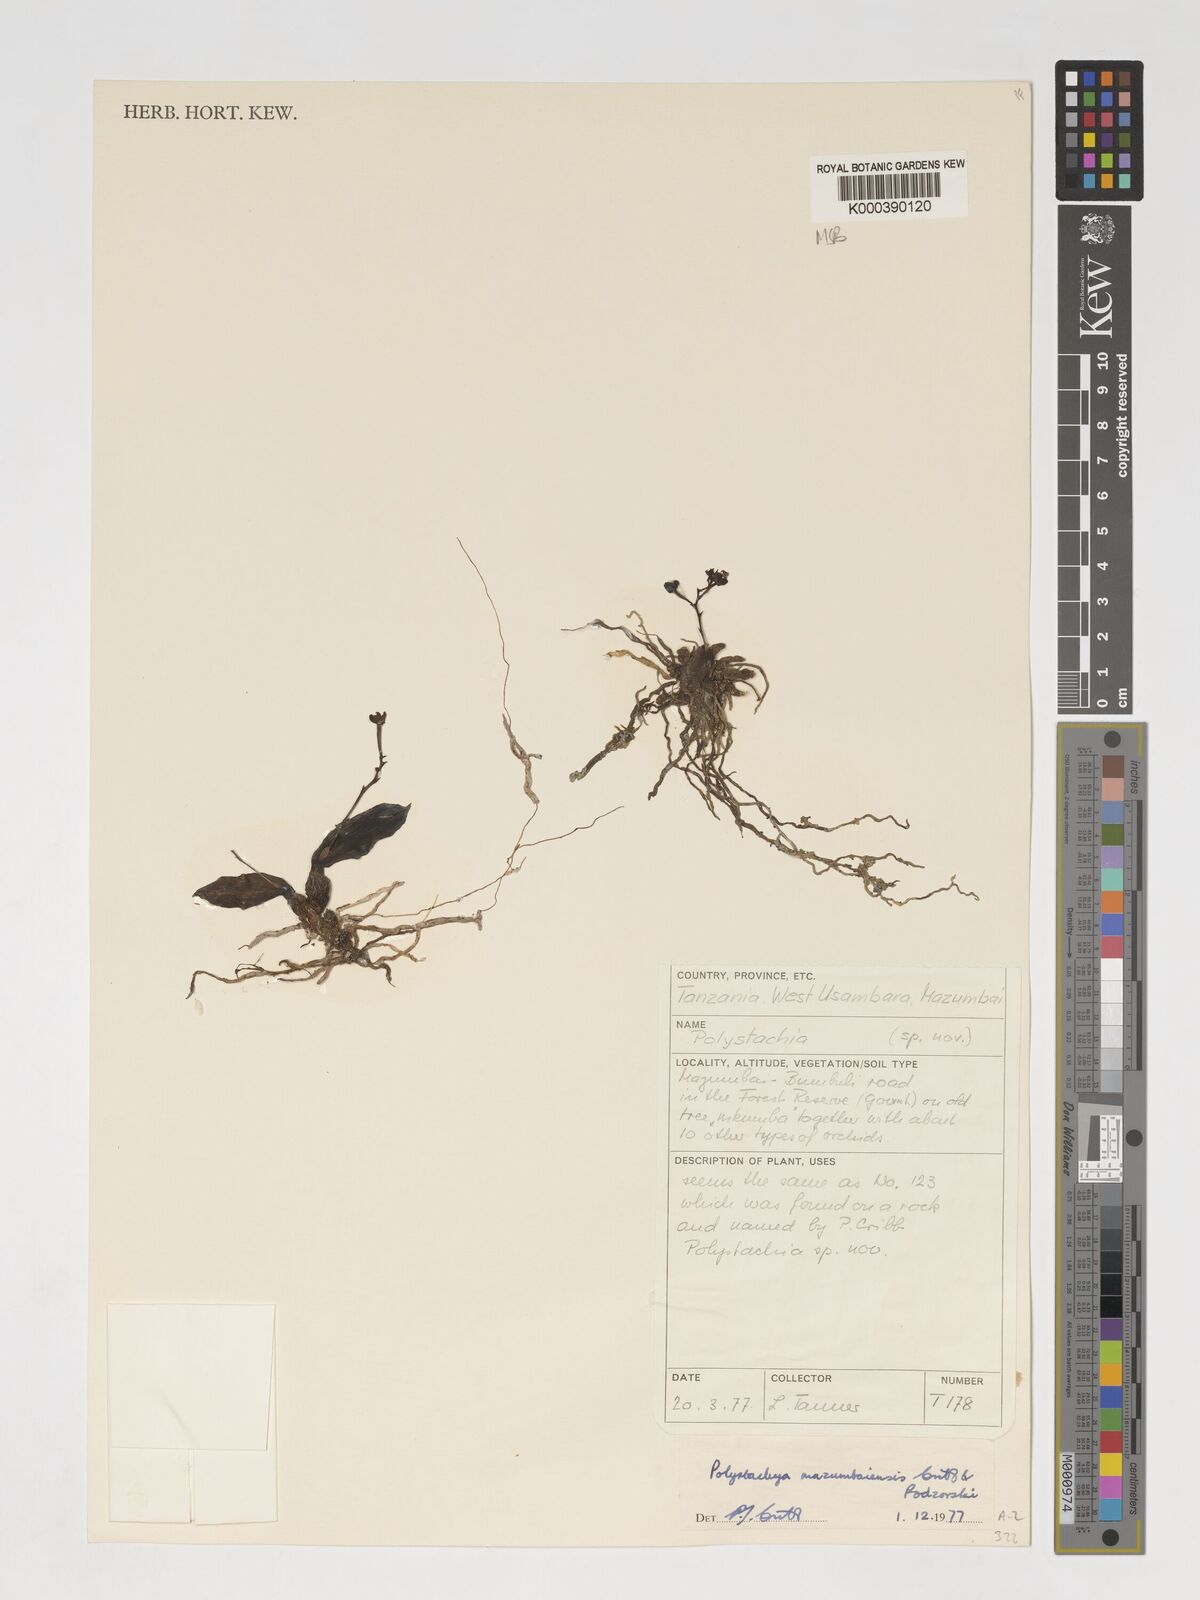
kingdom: Plantae
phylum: Tracheophyta
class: Liliopsida
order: Asparagales
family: Orchidaceae
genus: Polystachya
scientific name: Polystachya mazumbaiensis
